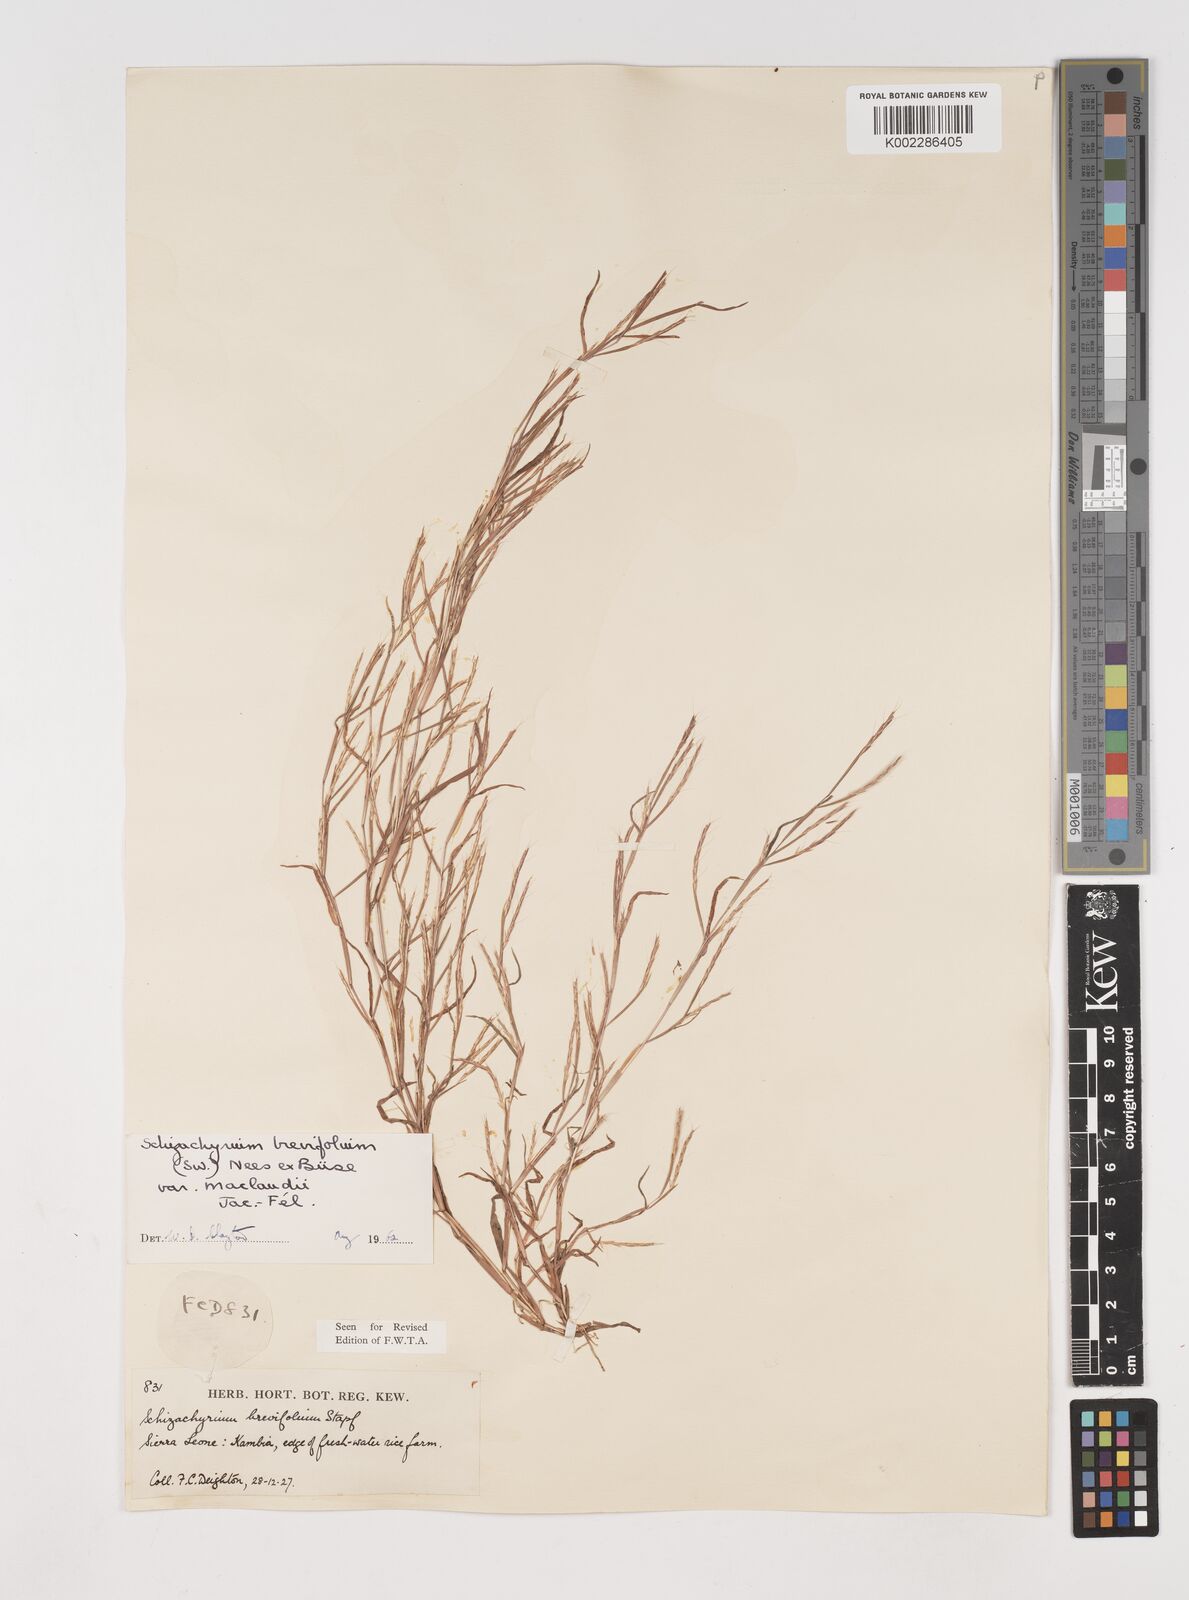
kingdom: Plantae
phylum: Tracheophyta
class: Liliopsida
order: Poales
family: Poaceae
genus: Schizachyrium
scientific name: Schizachyrium maclaudii
